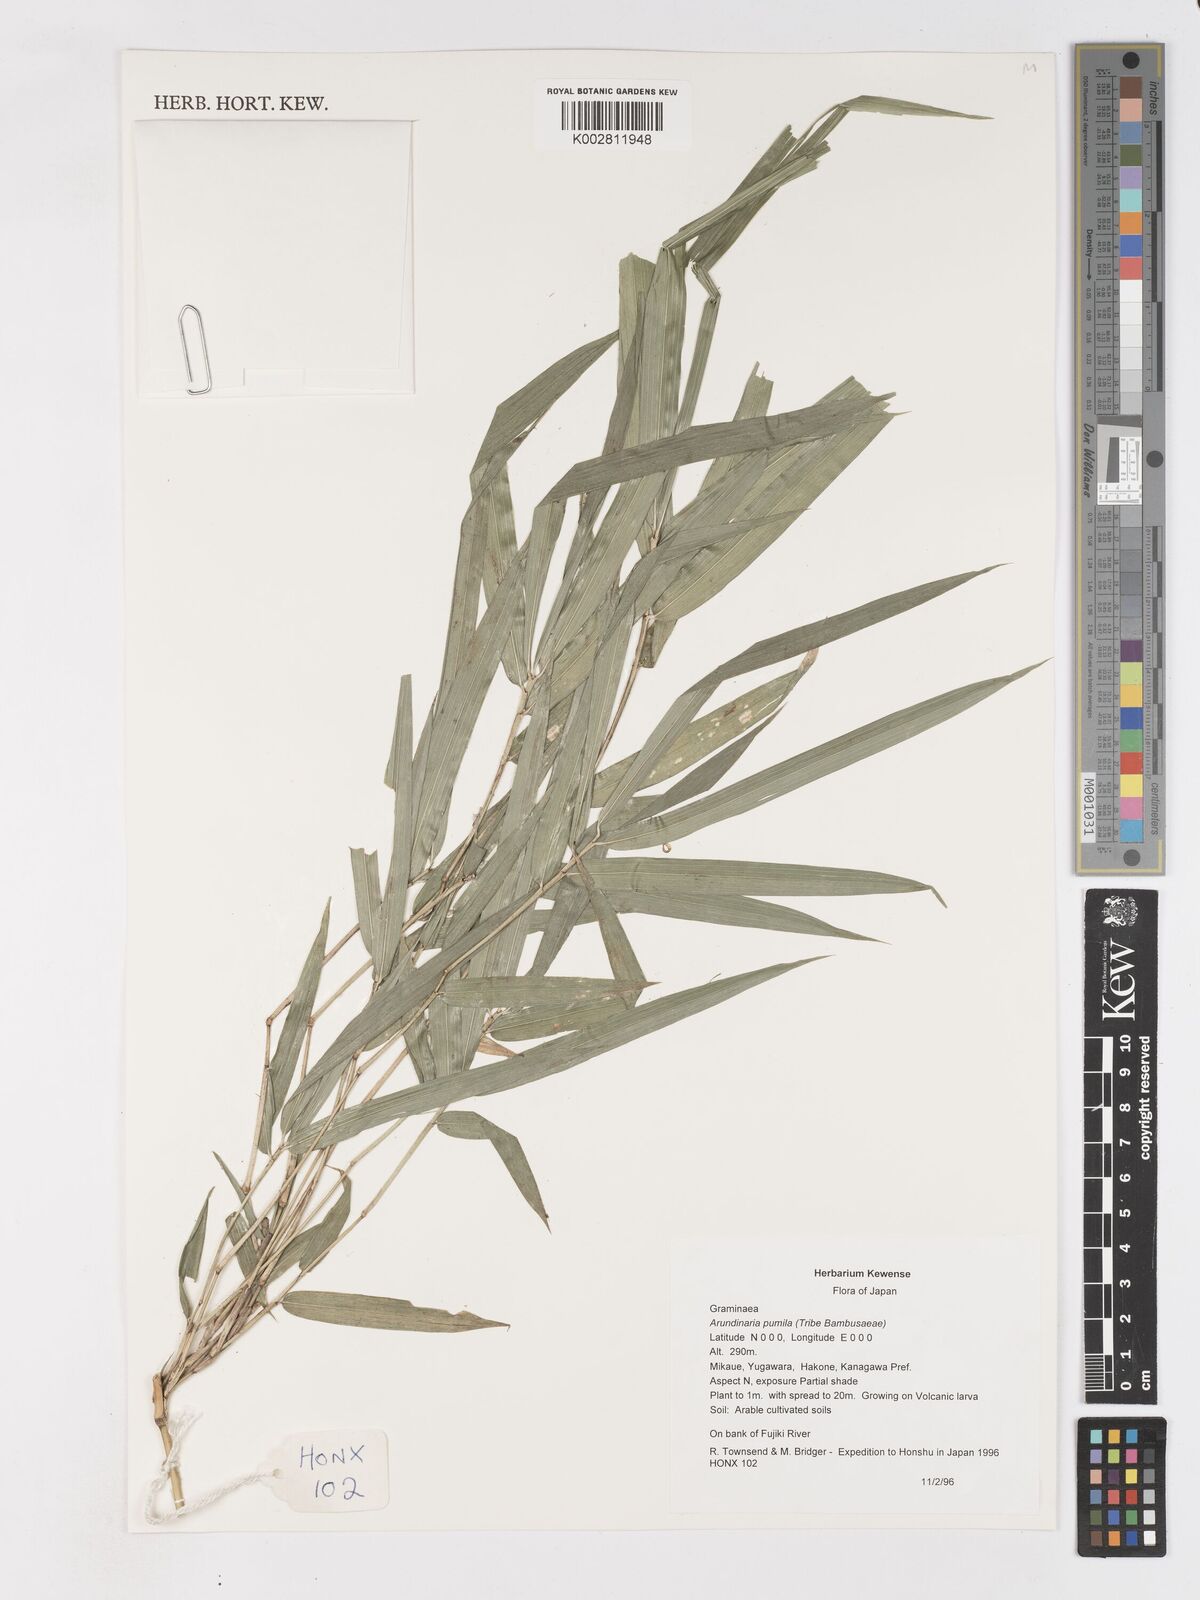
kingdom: Plantae
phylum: Tracheophyta
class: Liliopsida
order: Poales
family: Poaceae
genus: Pleioblastus
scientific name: Pleioblastus argenteostriatus
